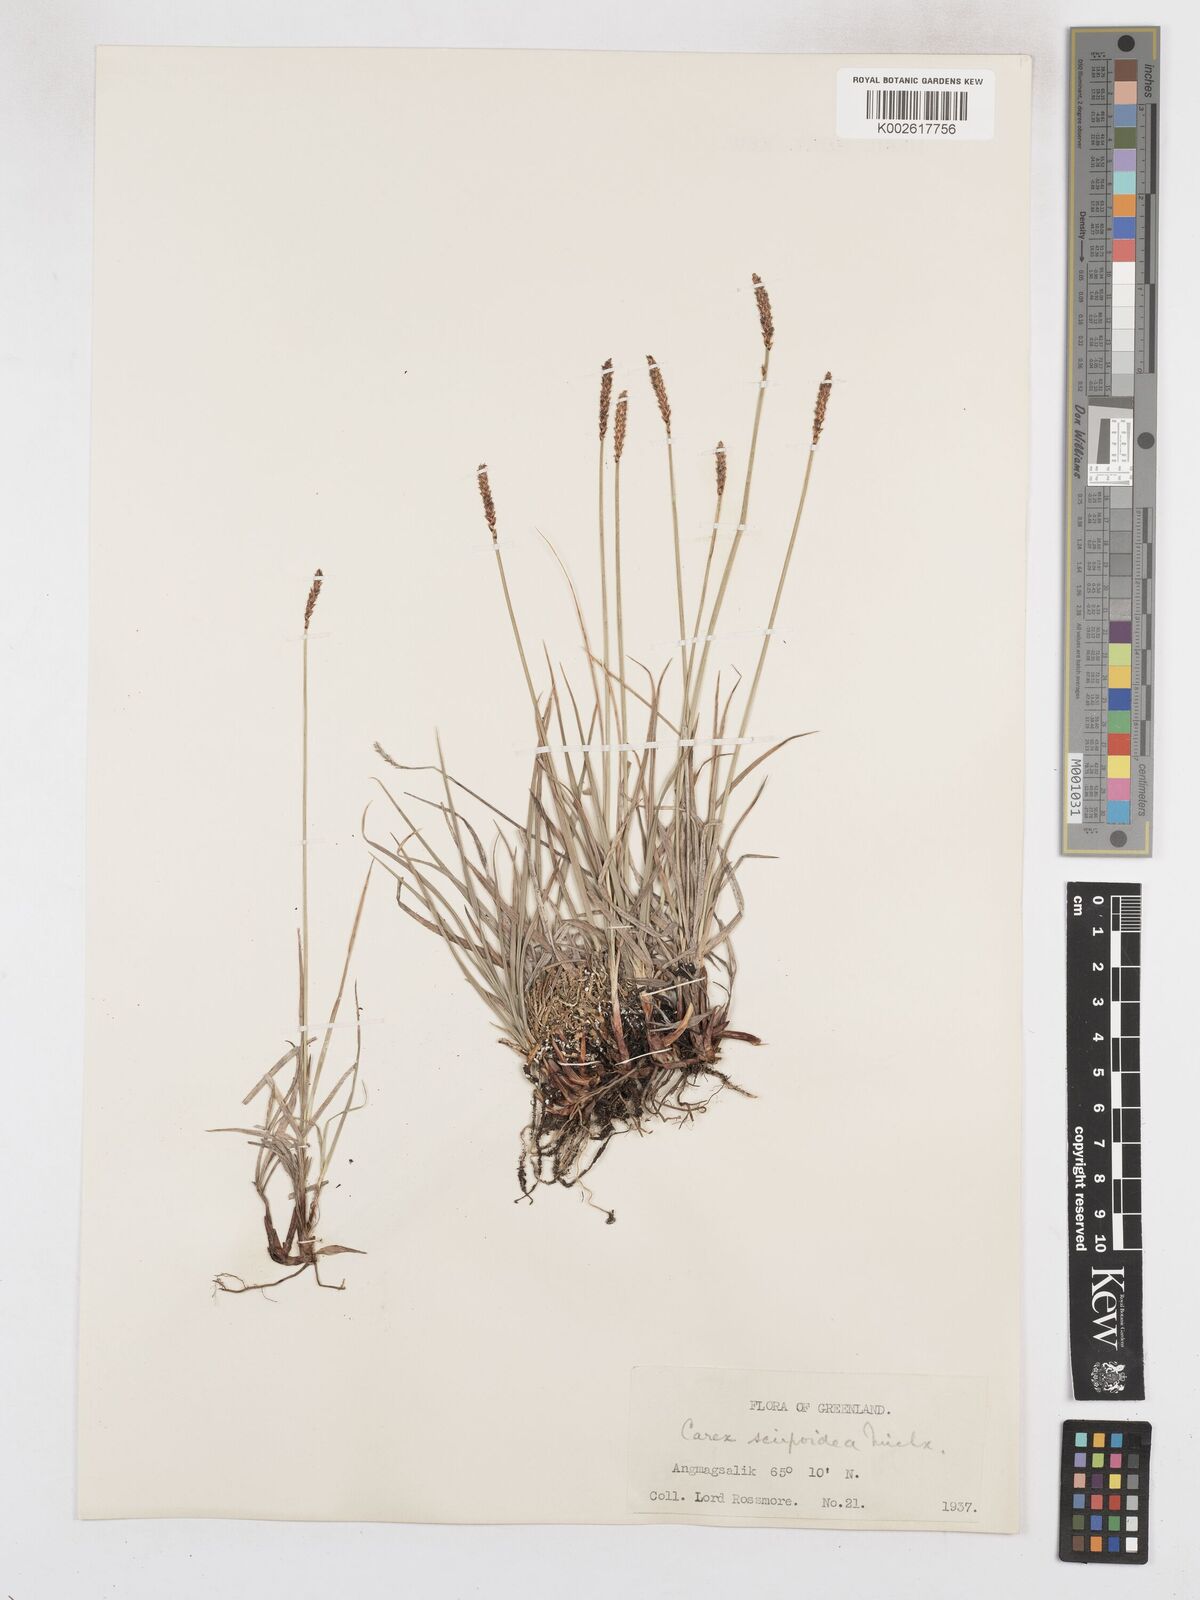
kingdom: Plantae
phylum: Tracheophyta
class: Liliopsida
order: Poales
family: Cyperaceae
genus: Carex
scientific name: Carex scirpoidea
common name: Canada single-spike sedge
